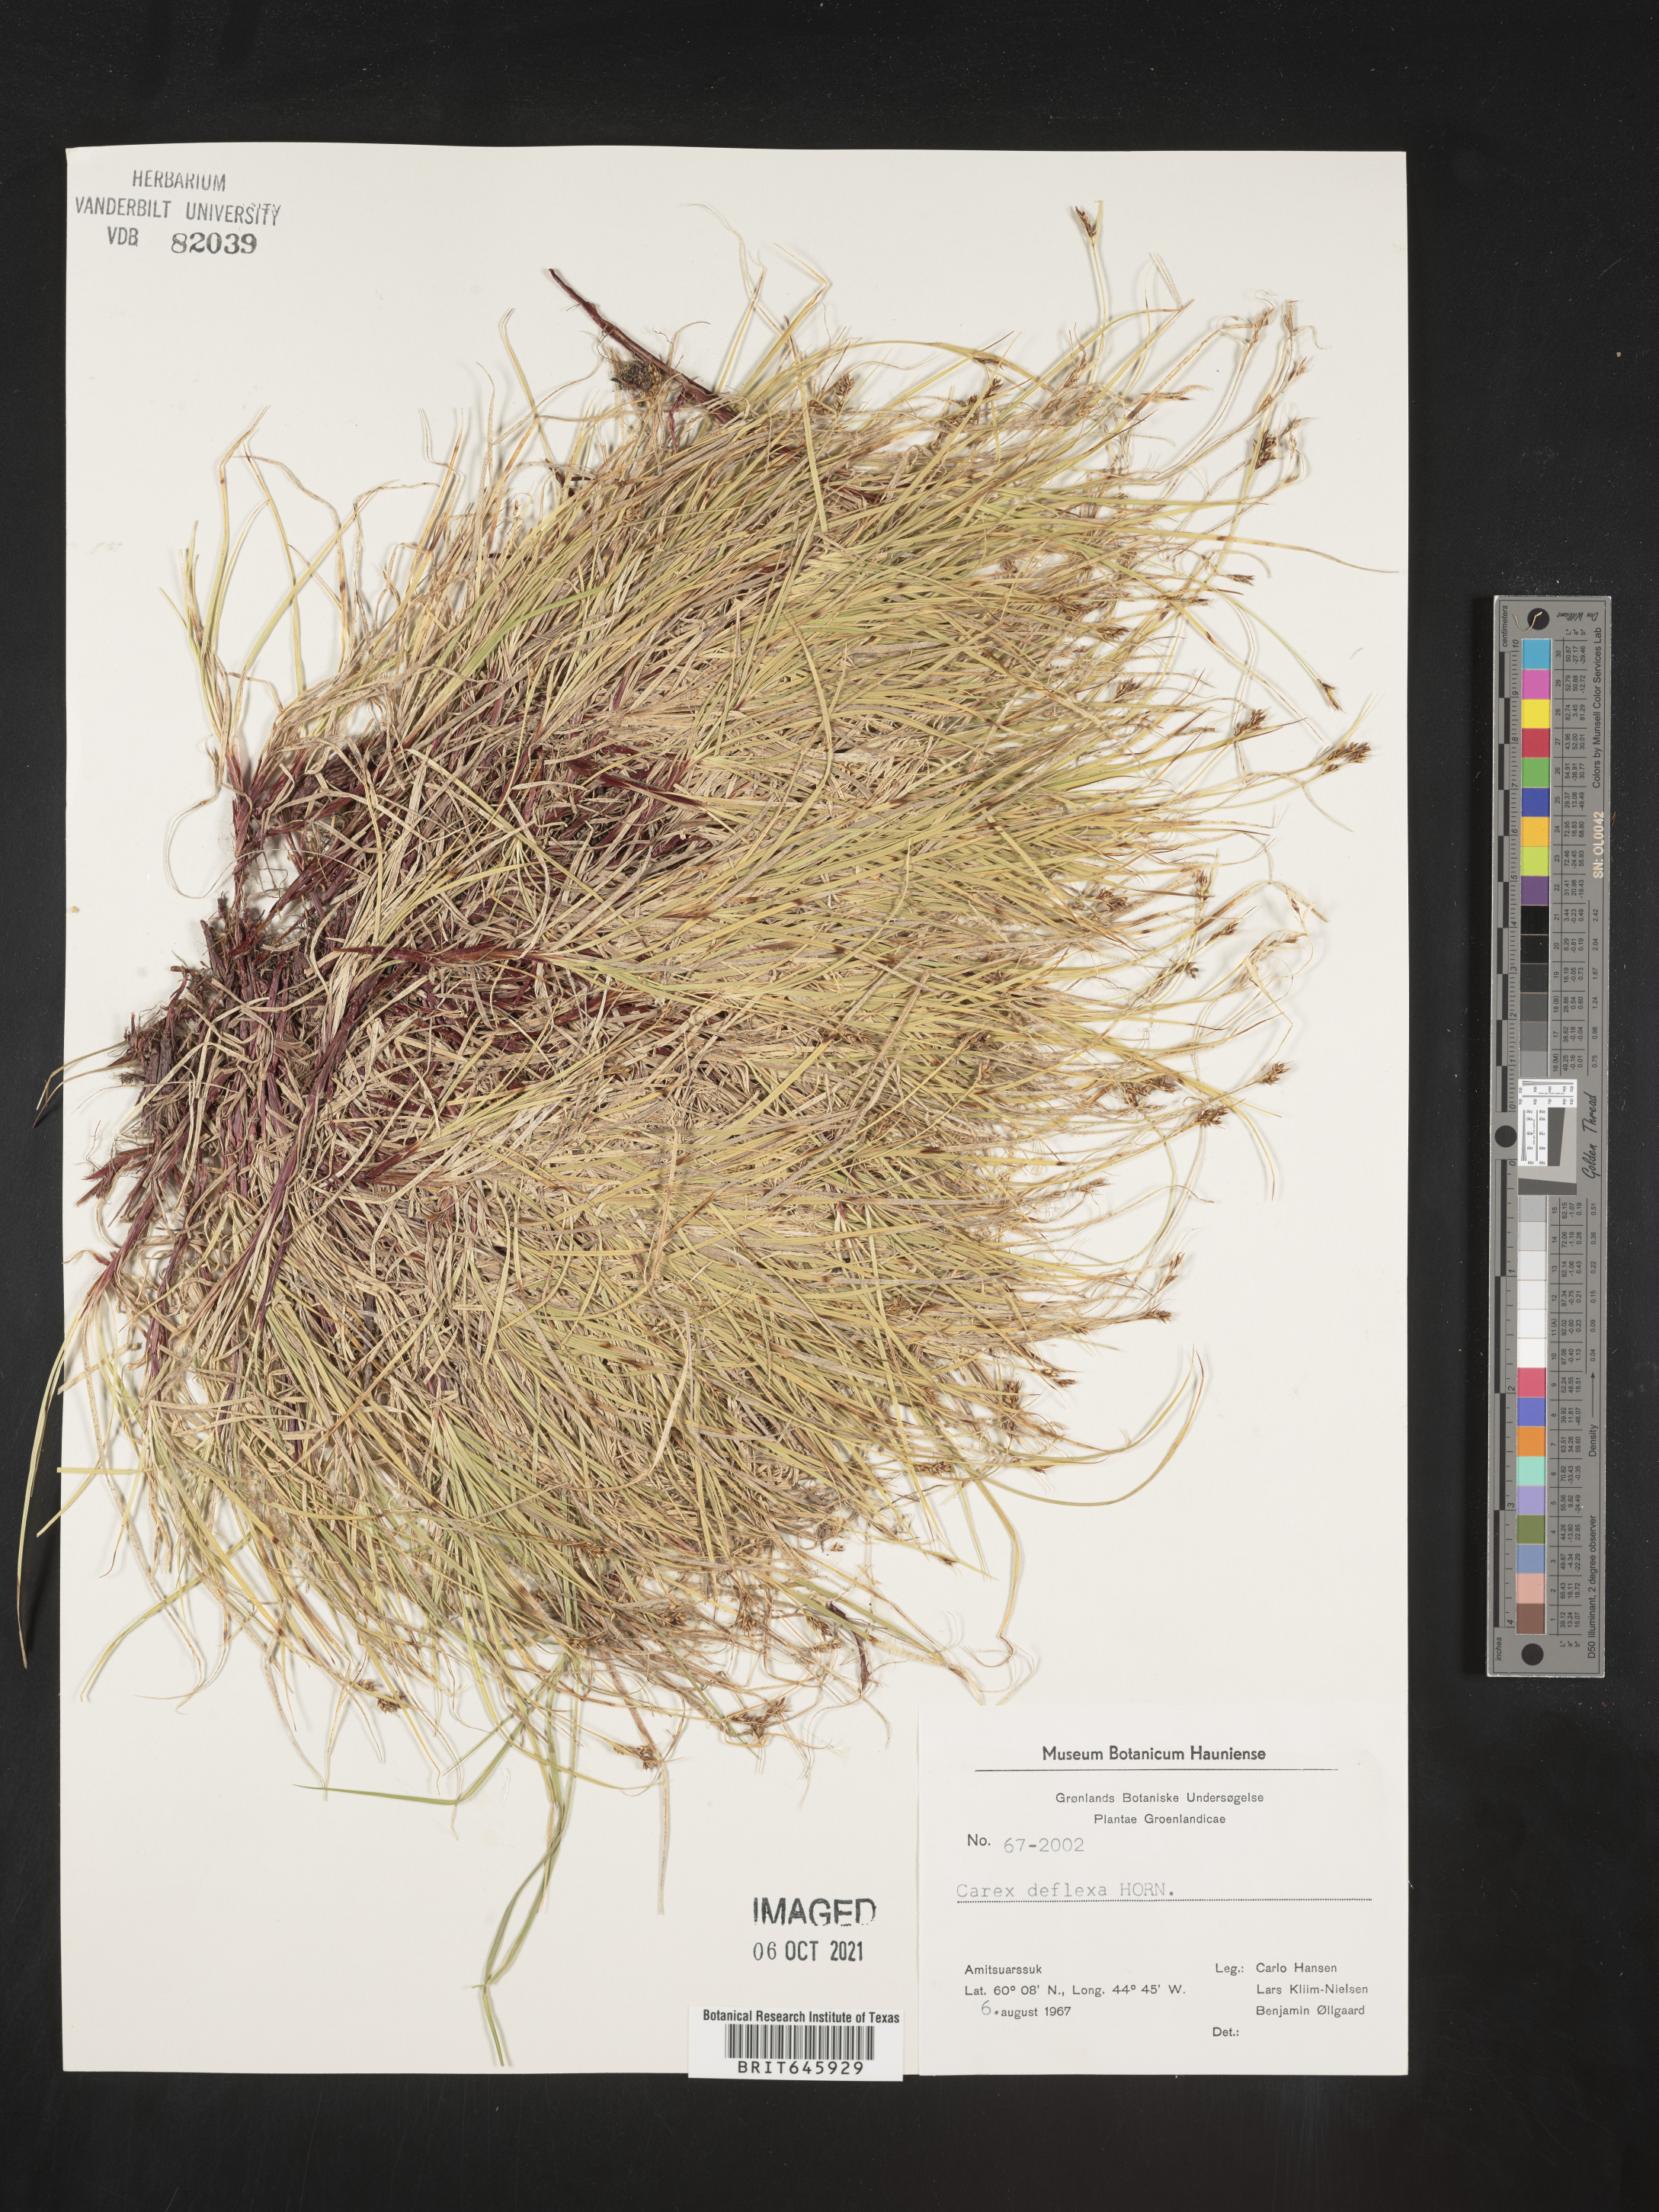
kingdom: Plantae
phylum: Tracheophyta
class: Liliopsida
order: Poales
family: Cyperaceae
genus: Carex
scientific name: Carex deflexa
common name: Bent northern sedge
